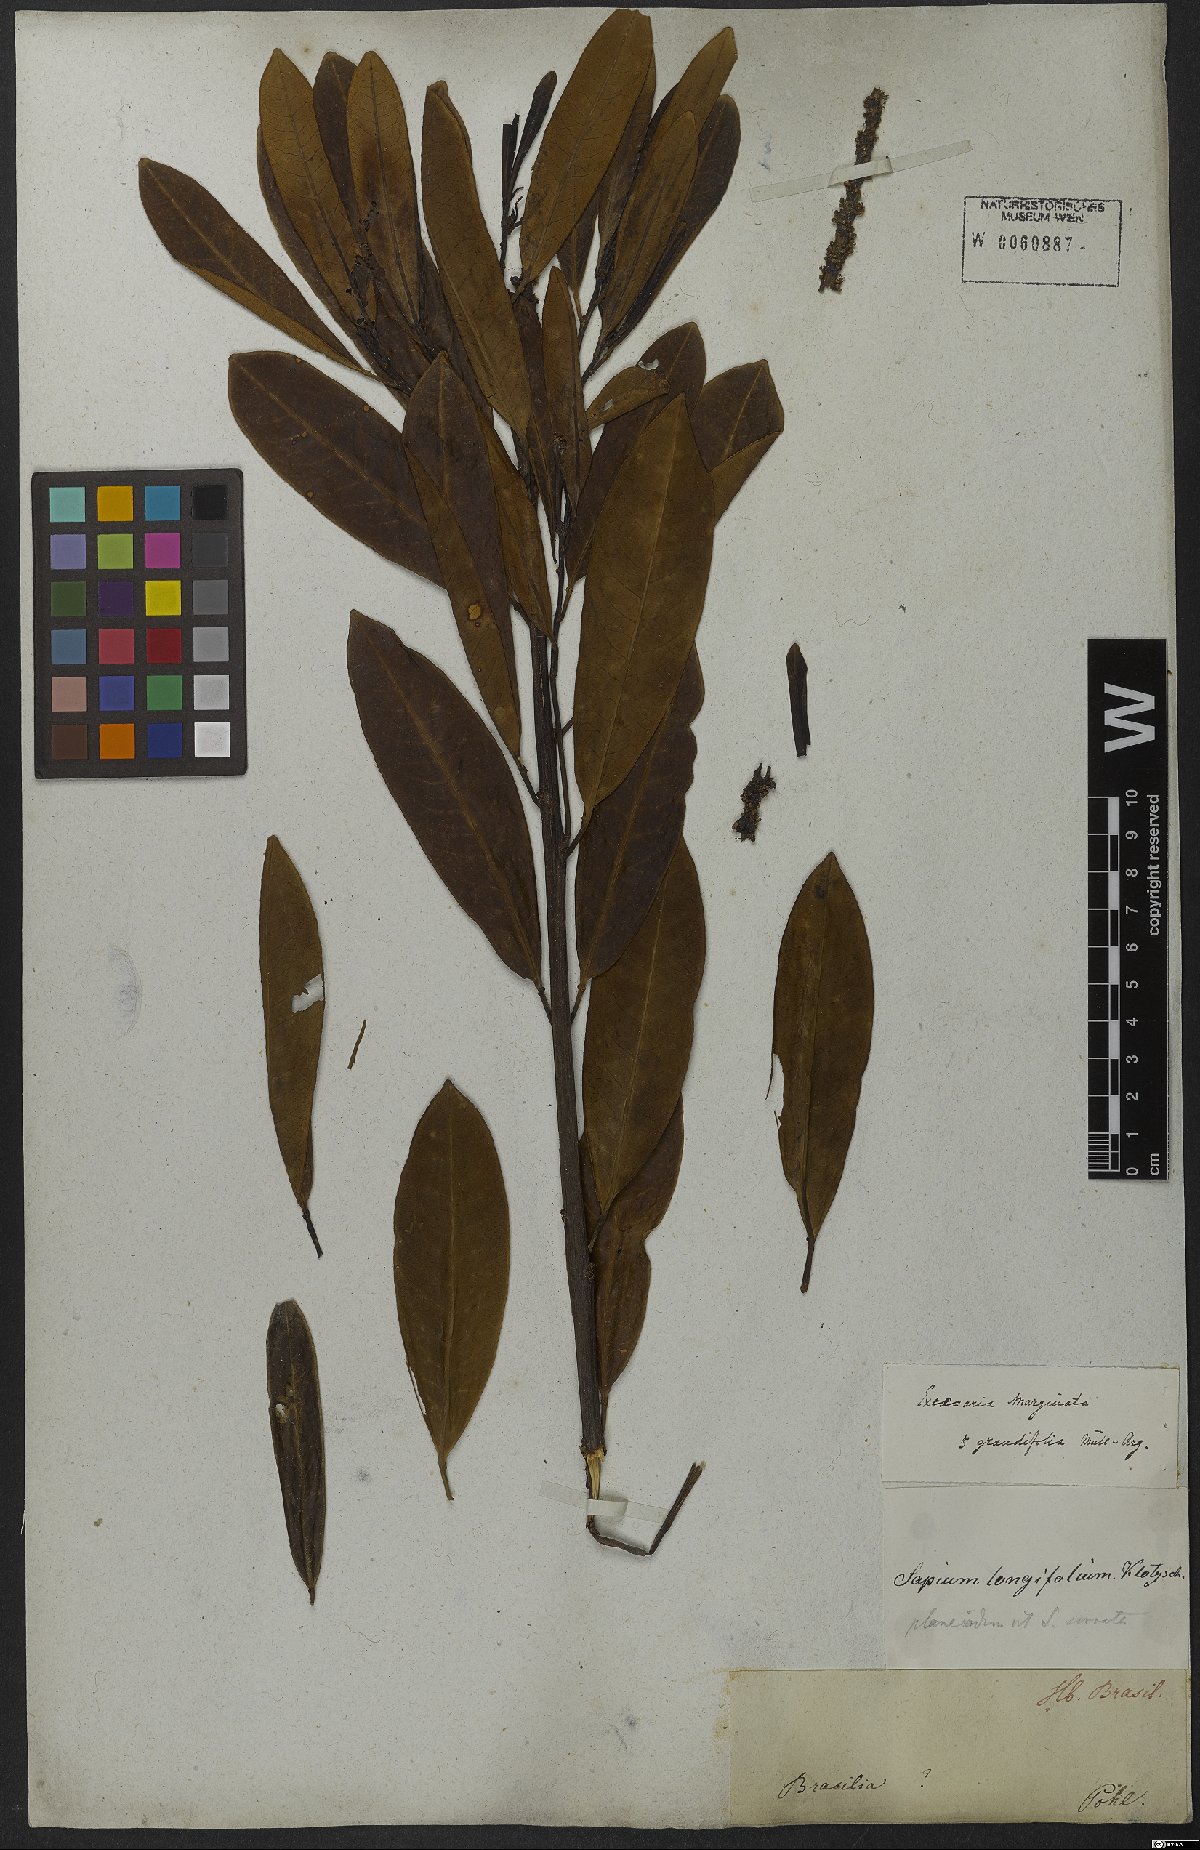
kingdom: Plantae
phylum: Tracheophyta
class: Magnoliopsida
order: Malpighiales
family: Euphorbiaceae
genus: Sapium
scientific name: Sapium glandulosum
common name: Milktree
